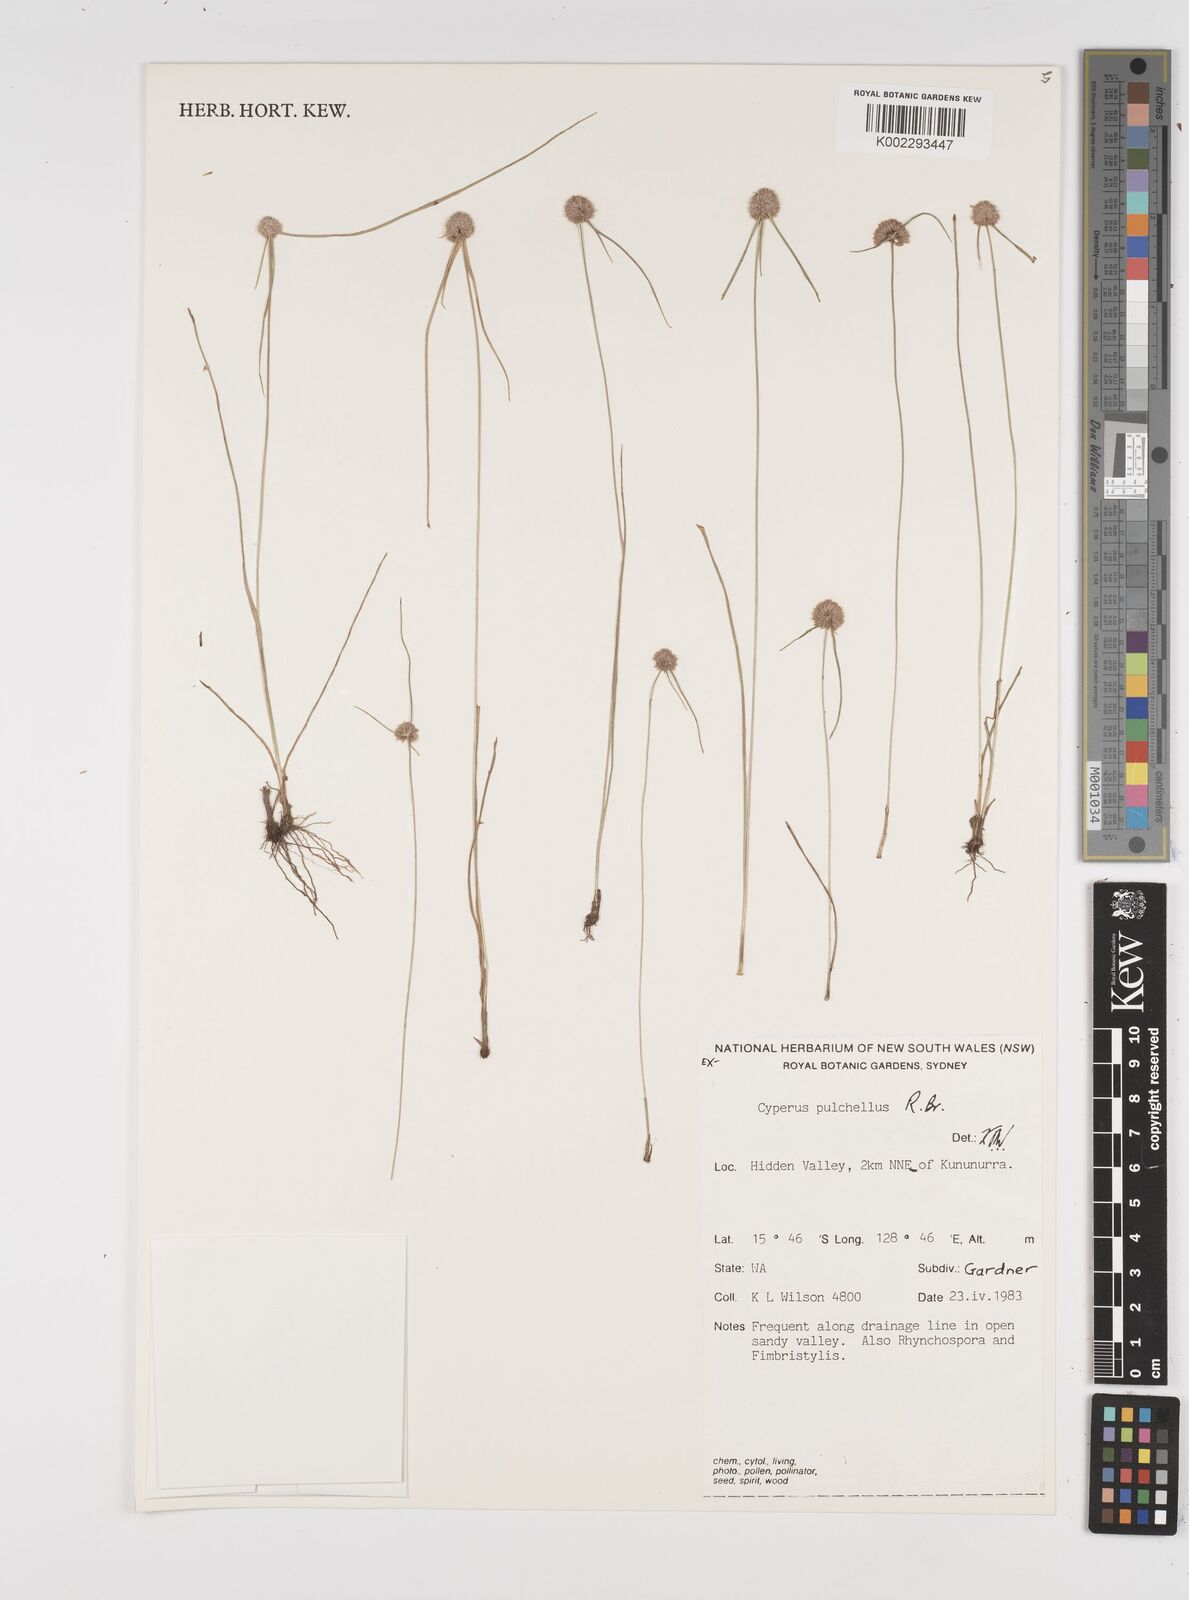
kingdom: Plantae
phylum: Tracheophyta
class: Liliopsida
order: Poales
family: Cyperaceae
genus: Cyperus
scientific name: Cyperus pulchellus
